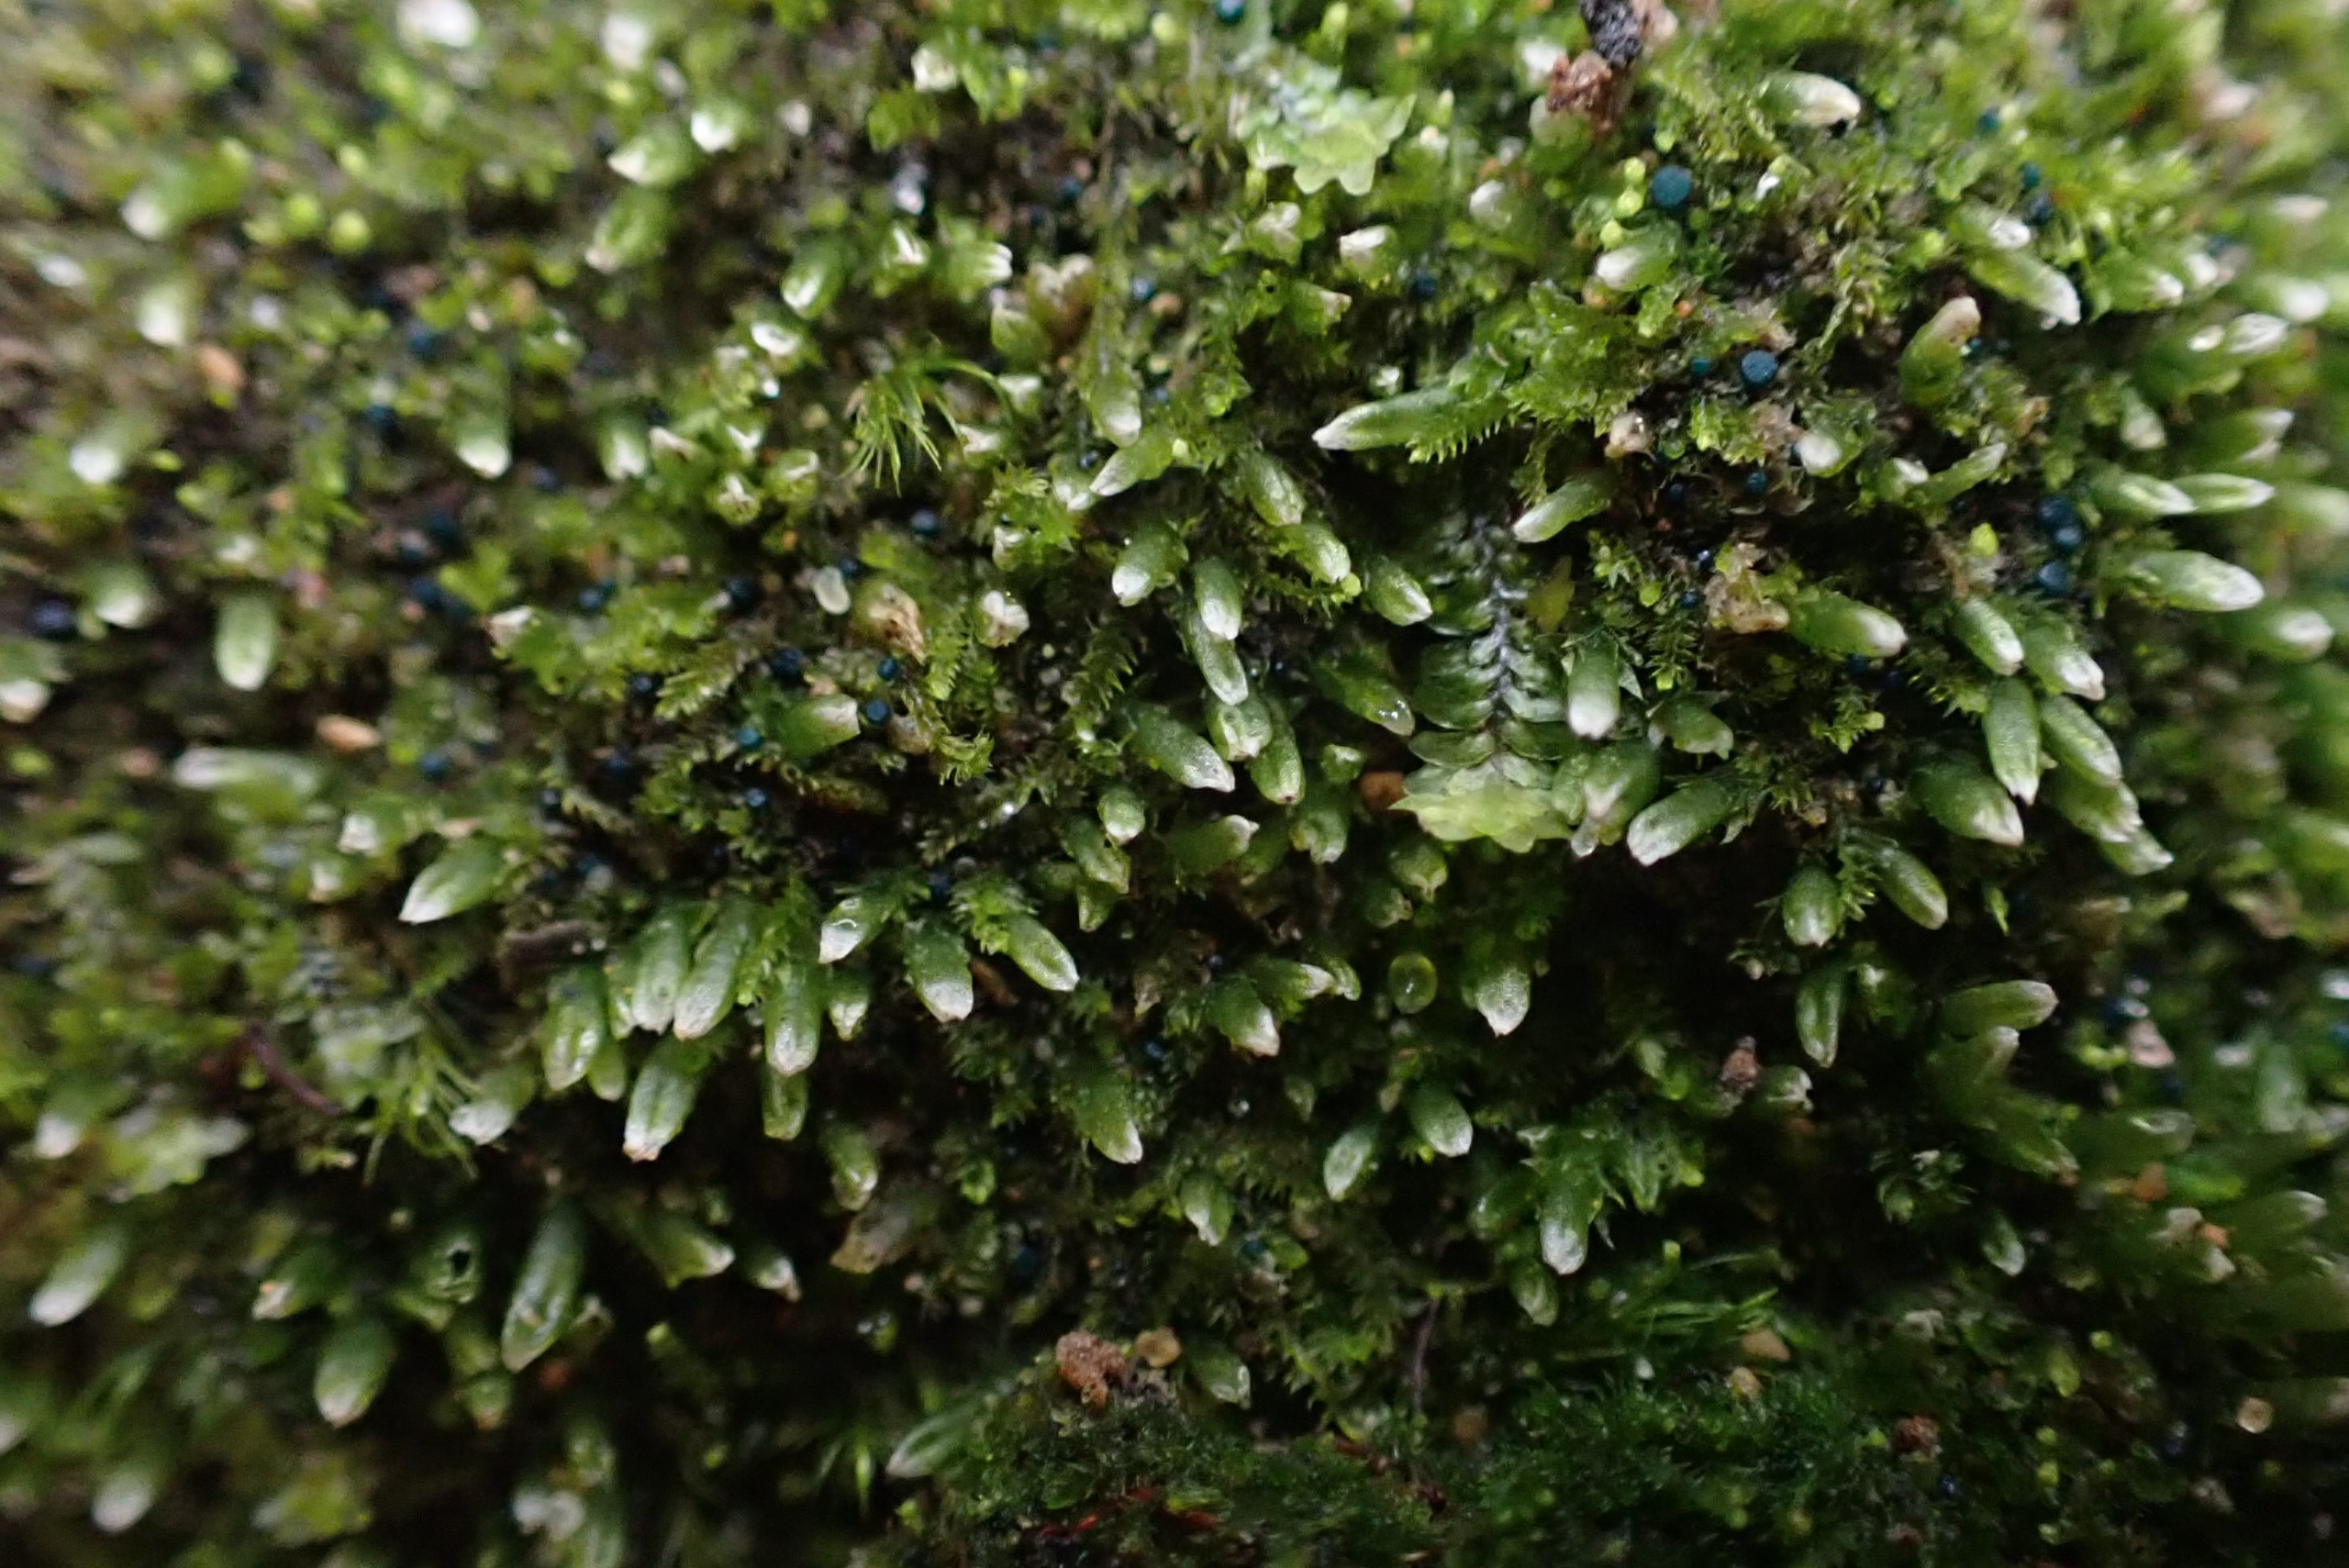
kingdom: Plantae
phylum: Marchantiophyta
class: Jungermanniopsida
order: Jungermanniales
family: Cephaloziaceae
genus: Cephalozia
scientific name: Cephalozia bicuspidata
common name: Tvespidset kantbæger
